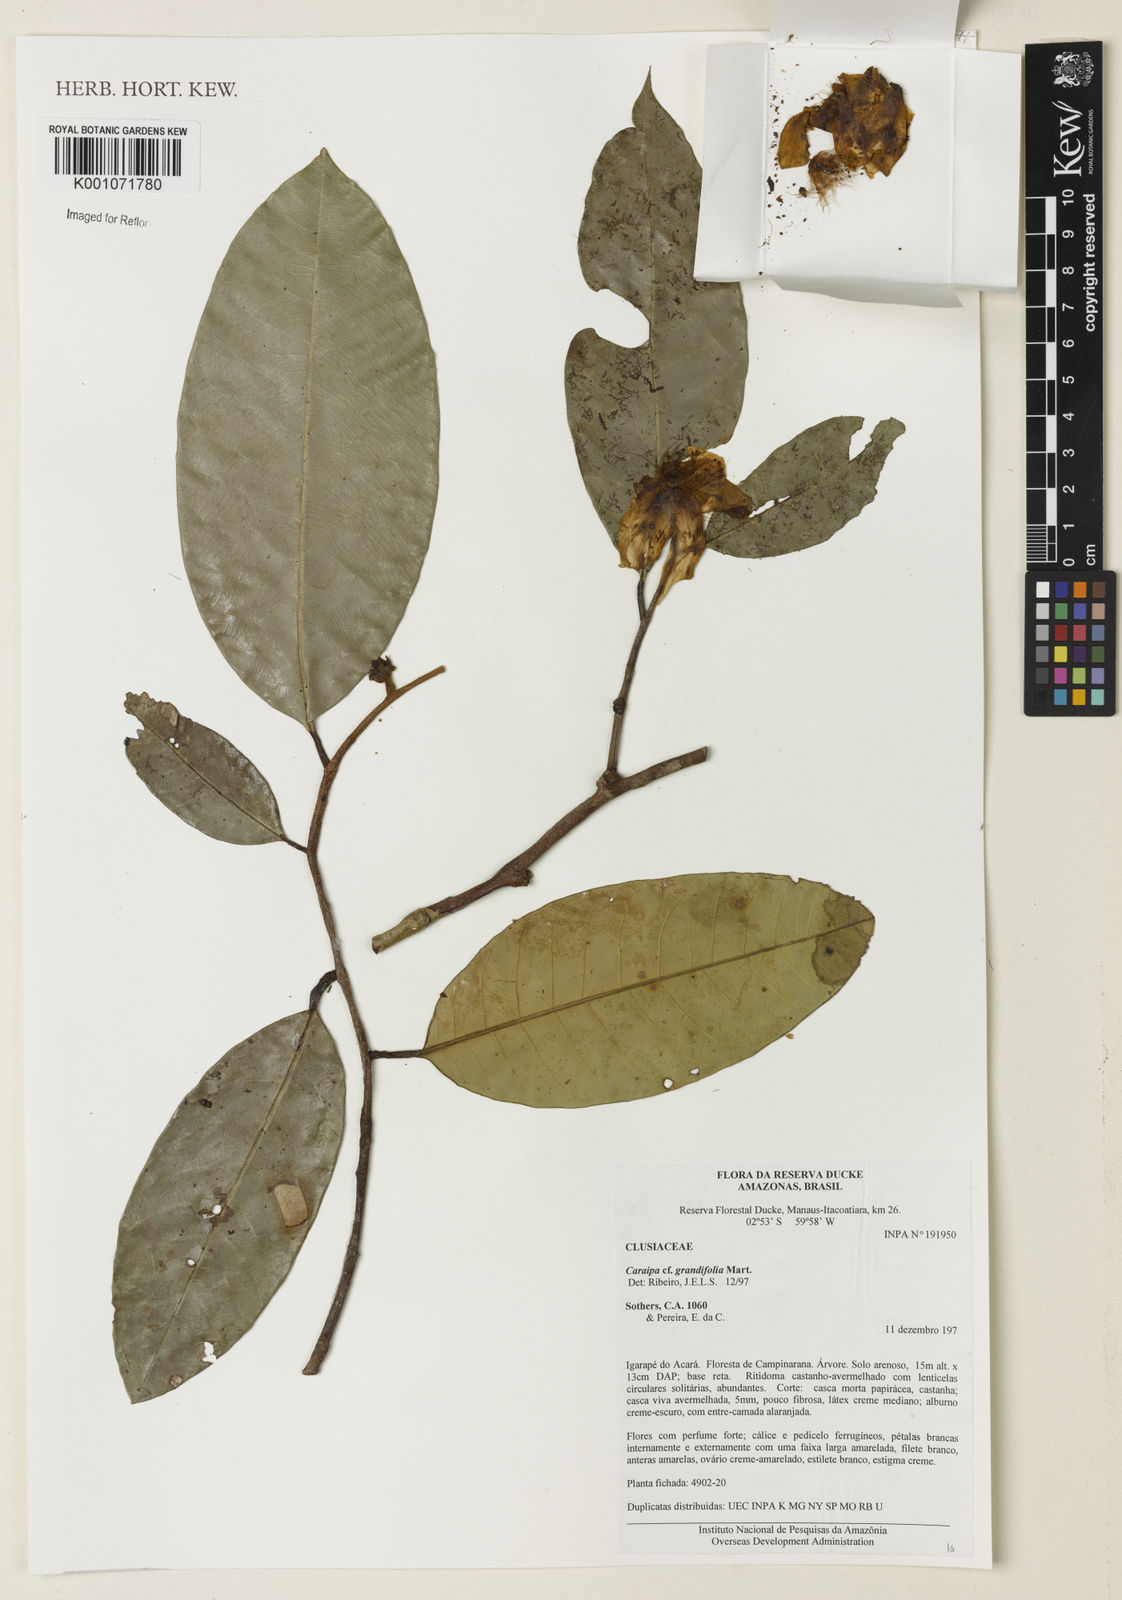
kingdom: Plantae
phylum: Tracheophyta
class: Magnoliopsida
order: Malpighiales
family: Calophyllaceae
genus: Caraipa
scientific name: Caraipa grandifolia
